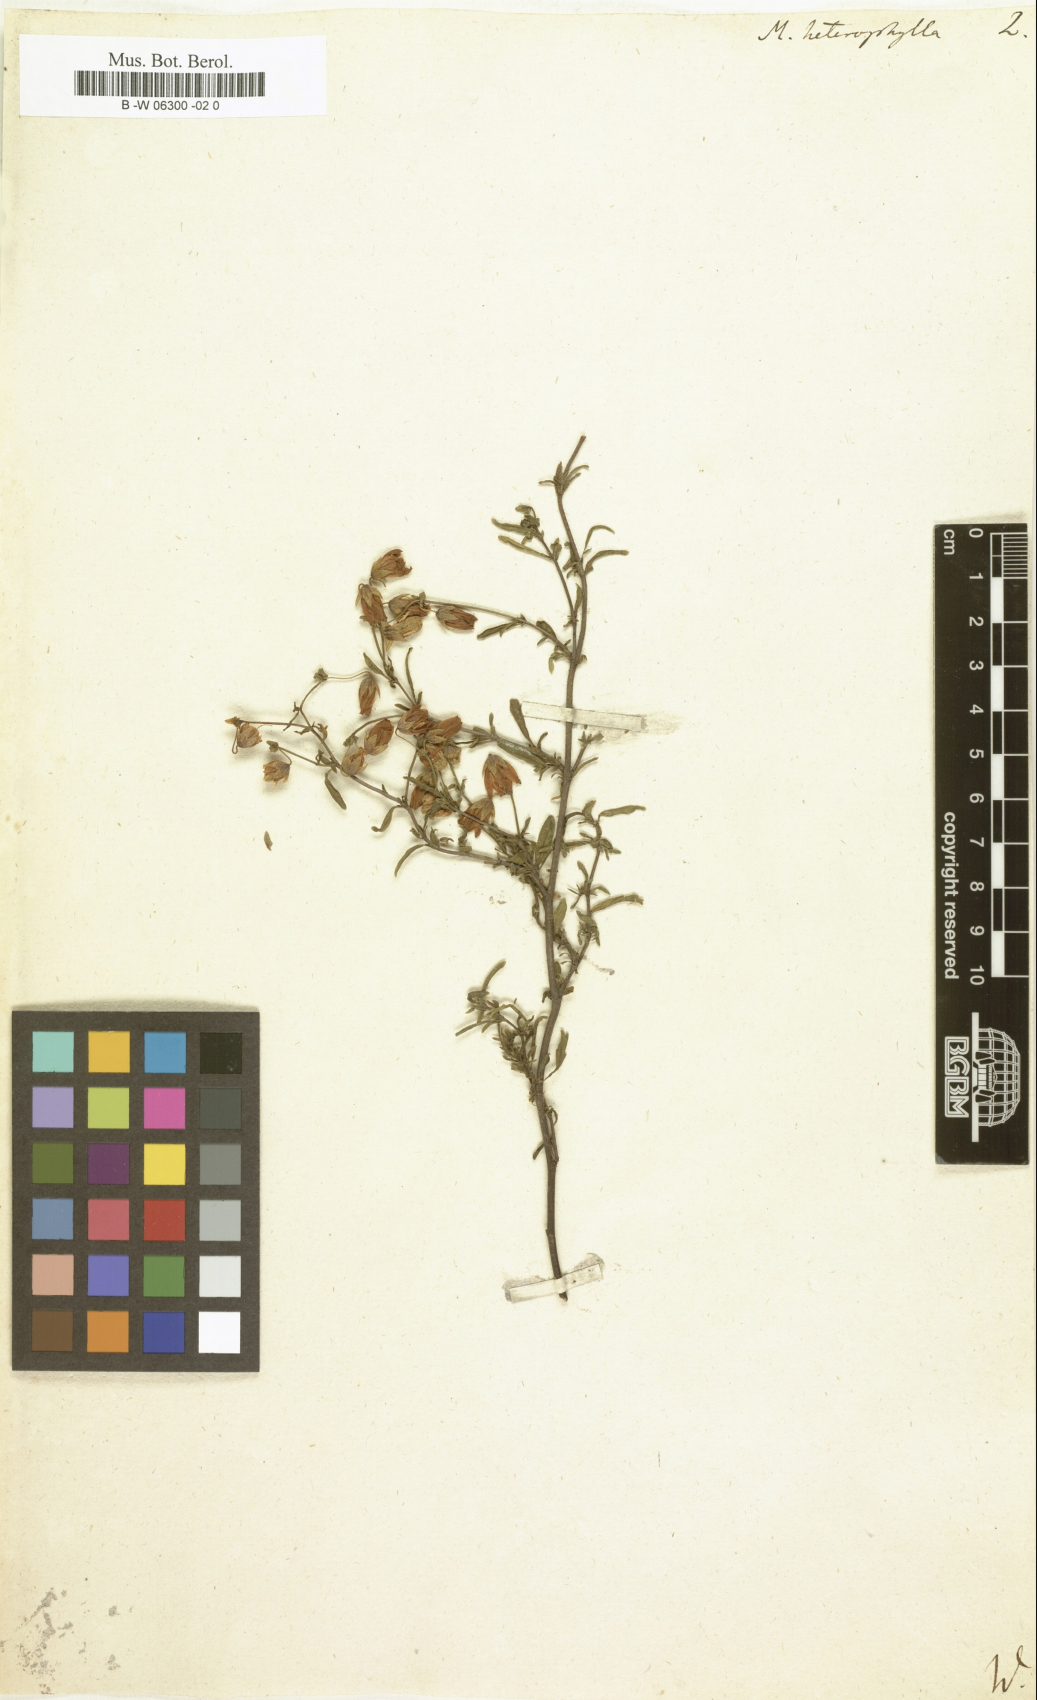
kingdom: Plantae
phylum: Tracheophyta
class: Magnoliopsida
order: Malvales
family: Malvaceae
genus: Hermannia
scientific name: Hermannia heterophylla
